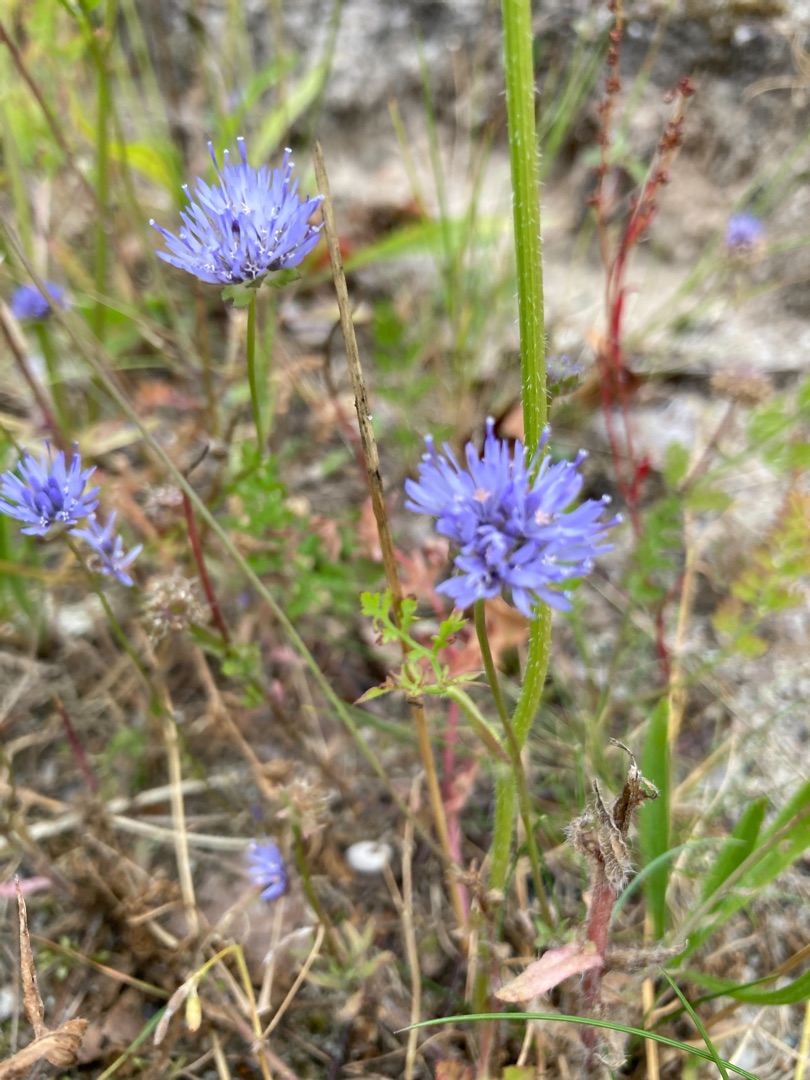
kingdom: Plantae
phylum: Tracheophyta
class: Magnoliopsida
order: Asterales
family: Campanulaceae
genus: Jasione
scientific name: Jasione montana
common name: Blåmunke
